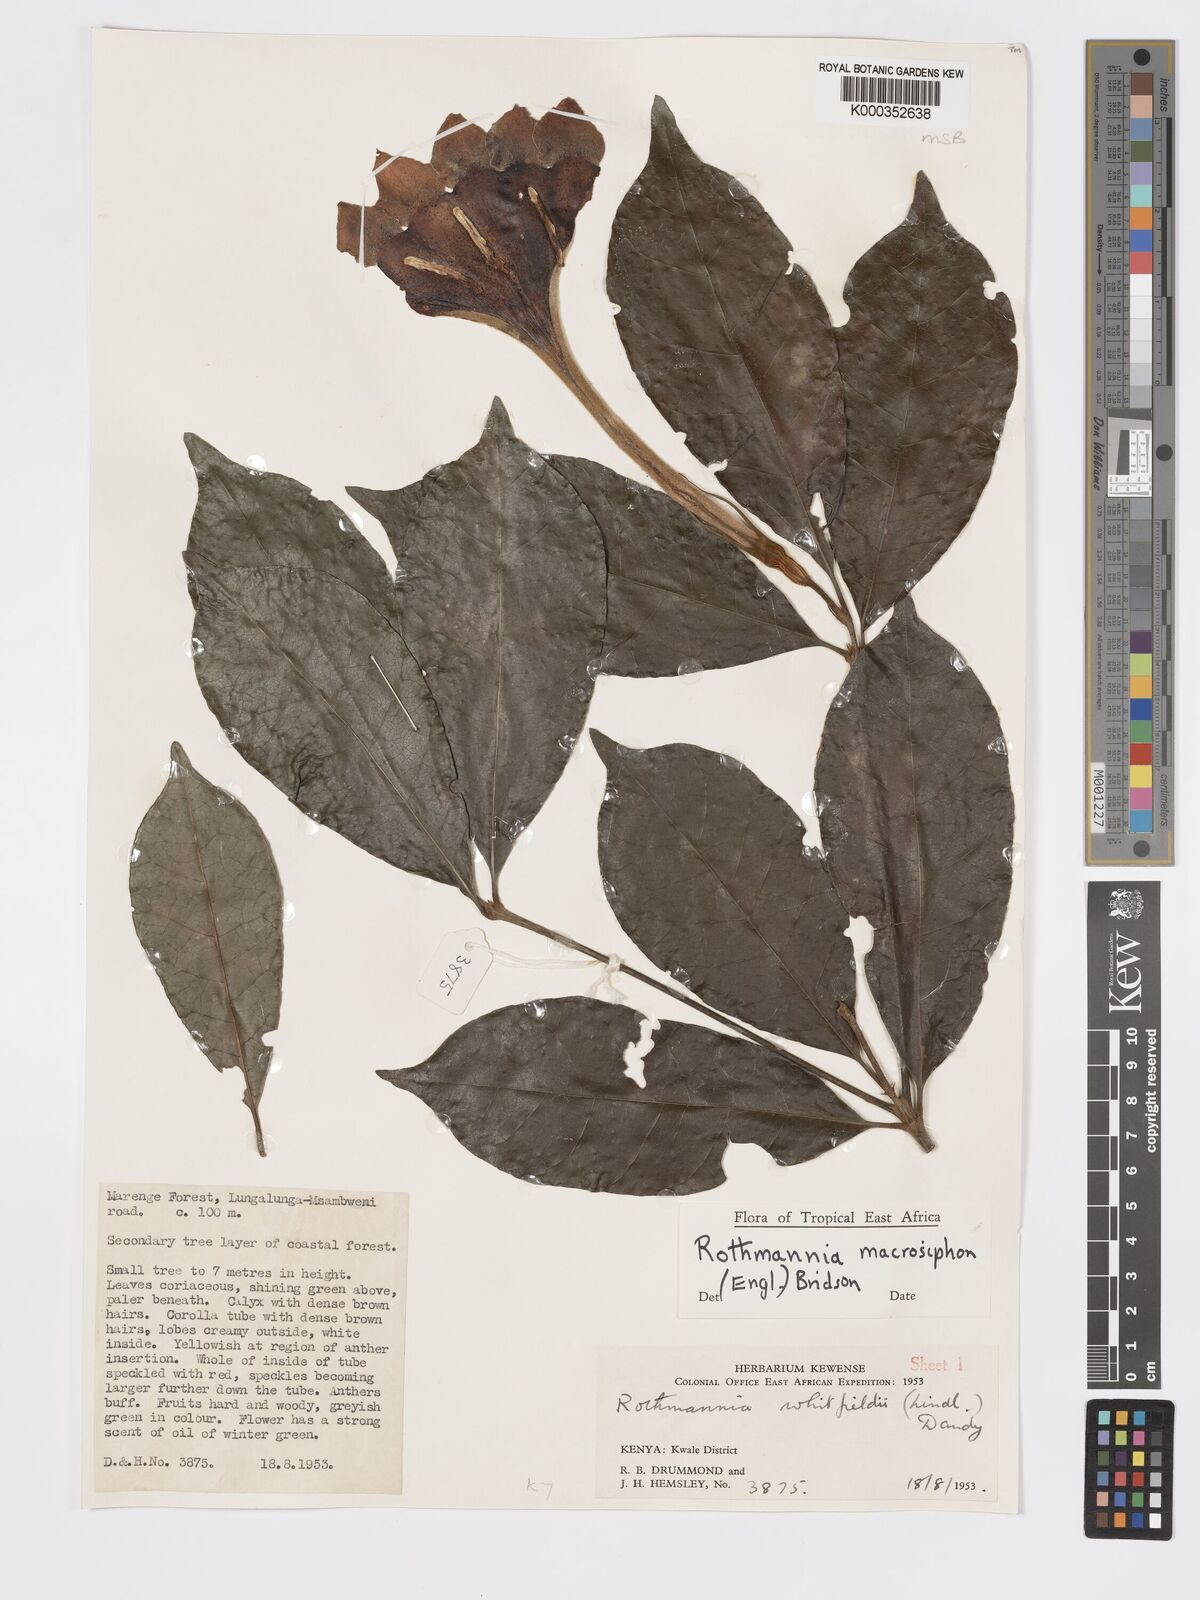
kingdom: Plantae
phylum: Tracheophyta
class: Magnoliopsida
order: Gentianales
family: Rubiaceae
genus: Rothmannia
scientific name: Rothmannia macrosiphon
